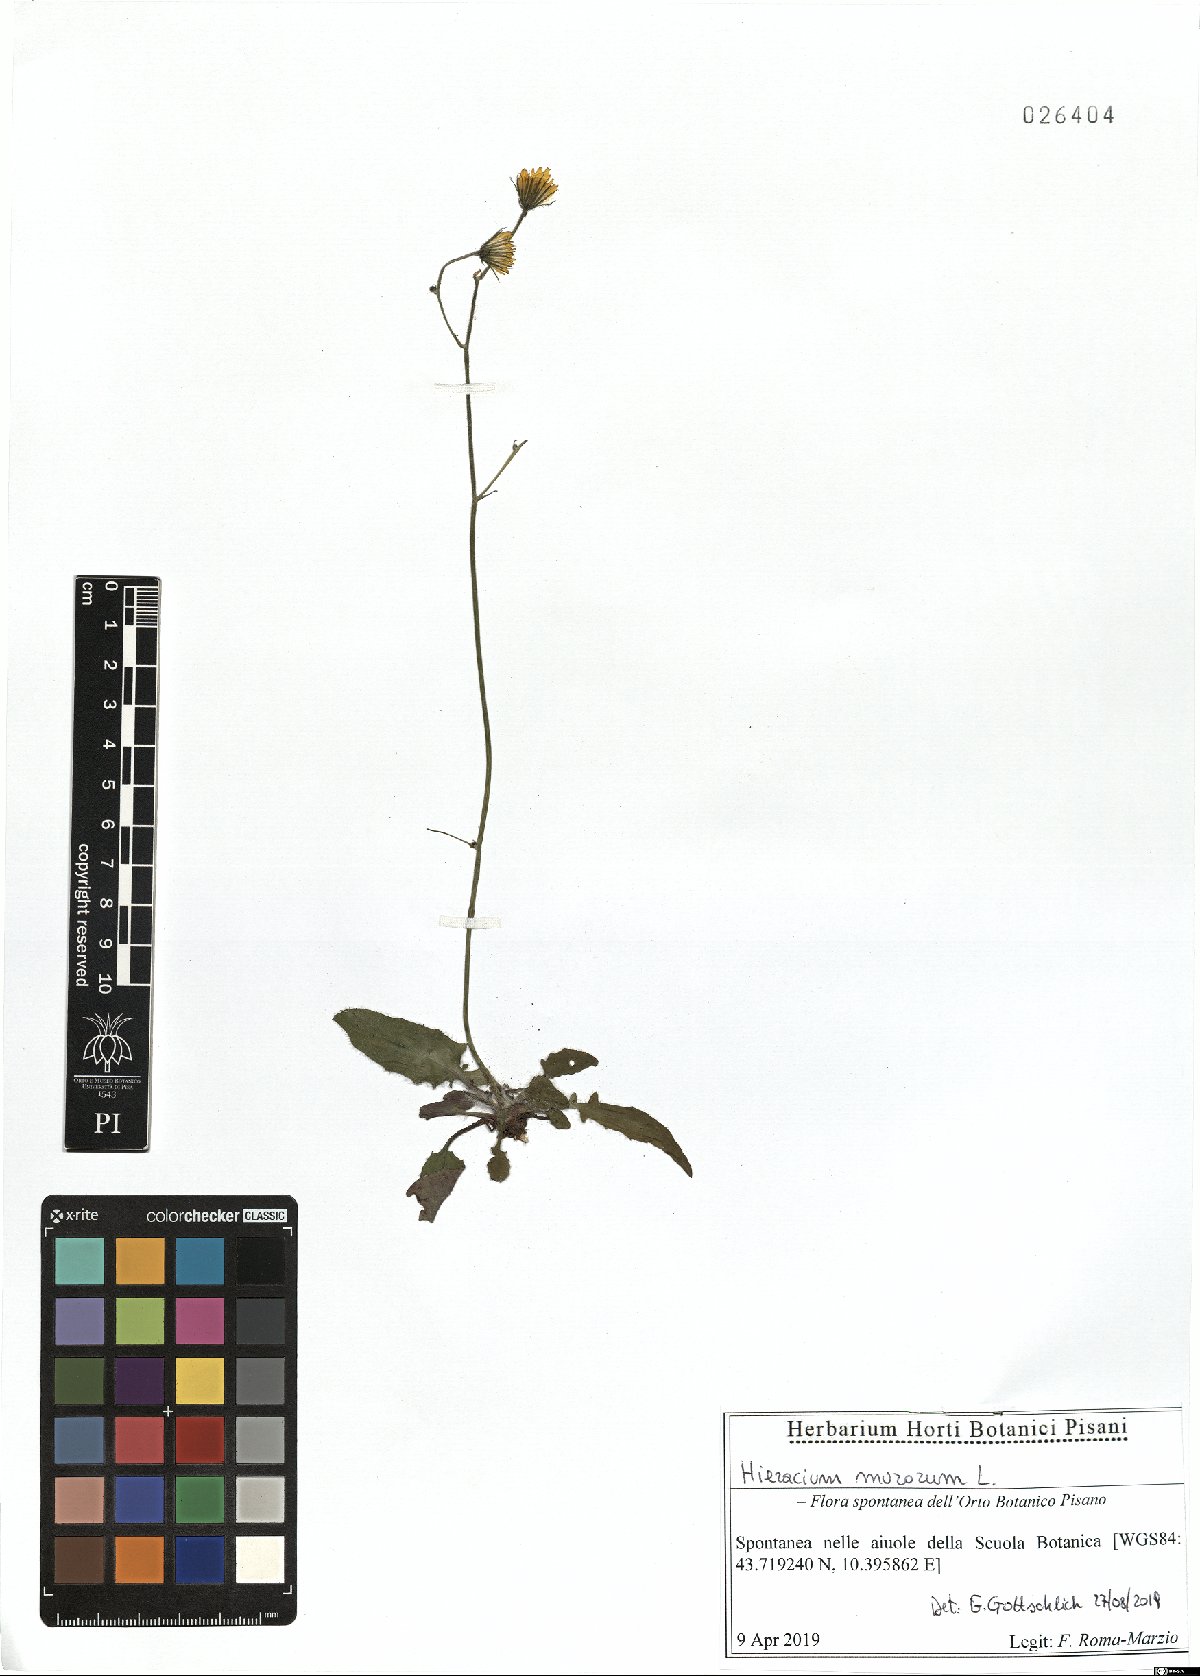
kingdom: Plantae
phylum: Tracheophyta
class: Magnoliopsida
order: Asterales
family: Asteraceae
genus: Hieracium
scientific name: Hieracium murorum
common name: Wall hawkweed
